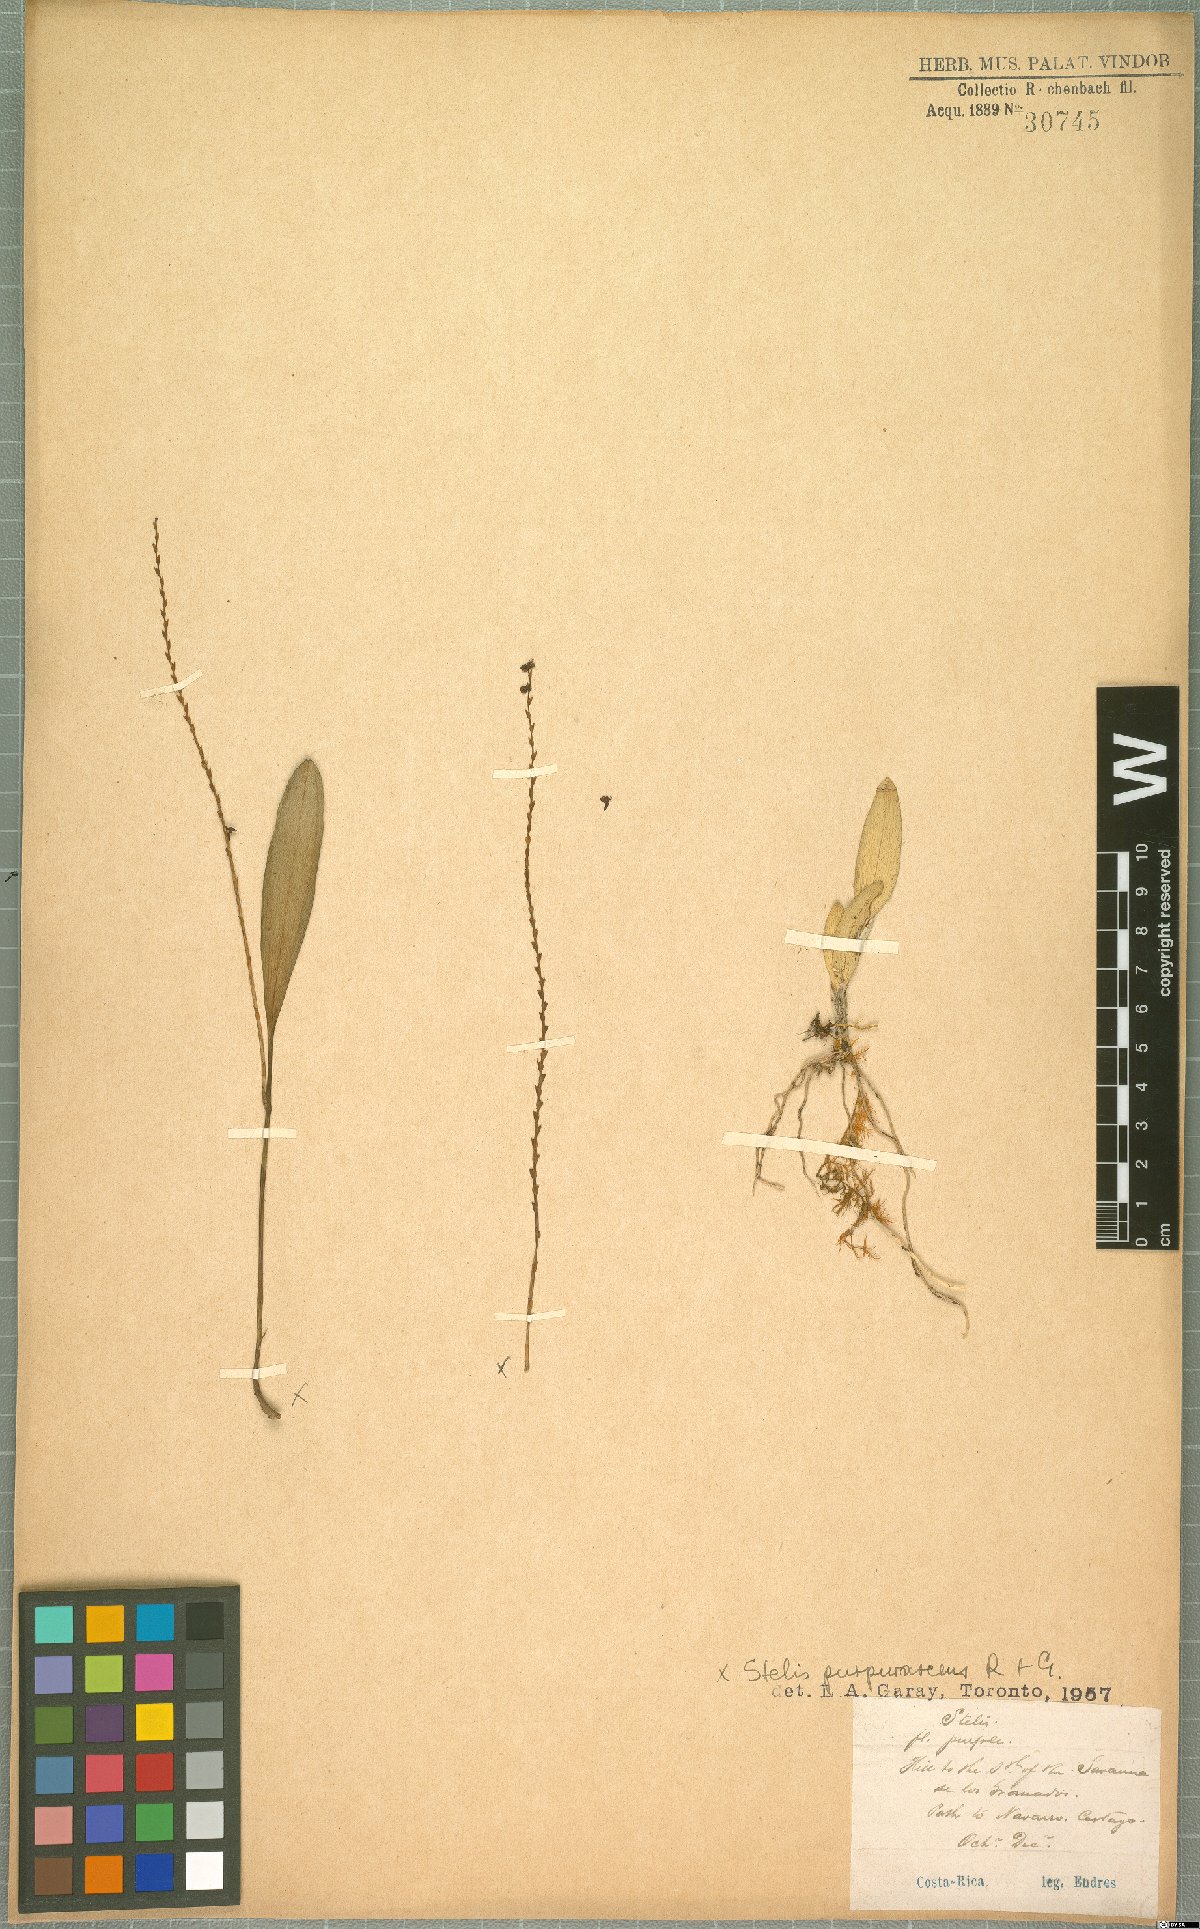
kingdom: Plantae
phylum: Tracheophyta
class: Liliopsida
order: Asparagales
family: Orchidaceae
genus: Stelis
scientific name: Stelis purpurascens
